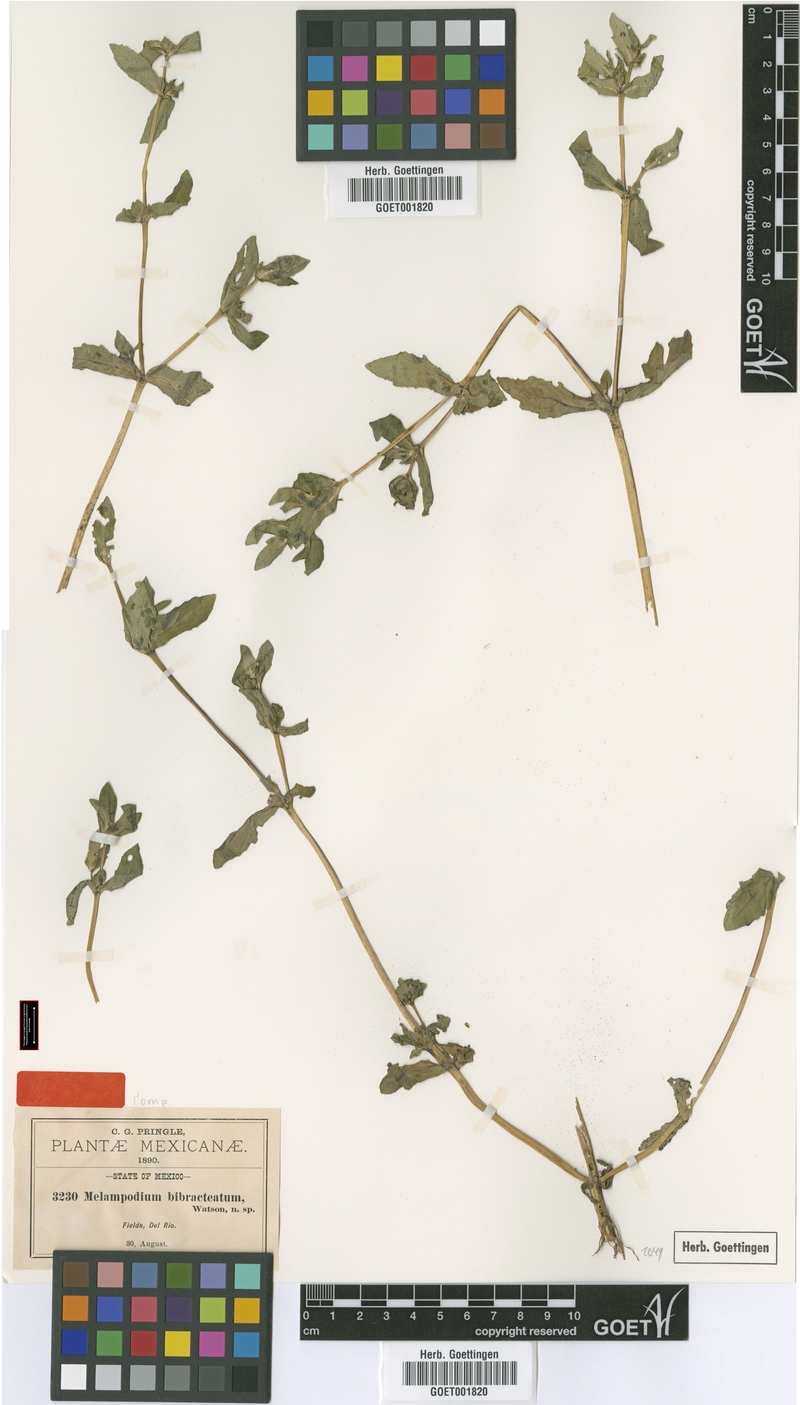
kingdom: Plantae
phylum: Tracheophyta
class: Magnoliopsida
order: Asterales
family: Asteraceae
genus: Melampodium
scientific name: Melampodium bibracteatum
